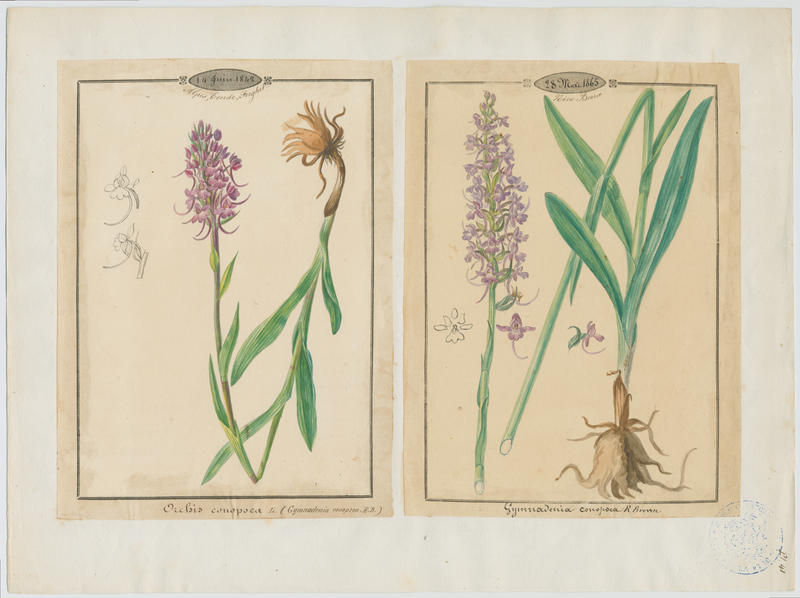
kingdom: Plantae
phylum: Tracheophyta
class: Liliopsida
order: Asparagales
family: Orchidaceae
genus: Gymnadenia
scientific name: Gymnadenia conopsea
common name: Fragrant orchid
